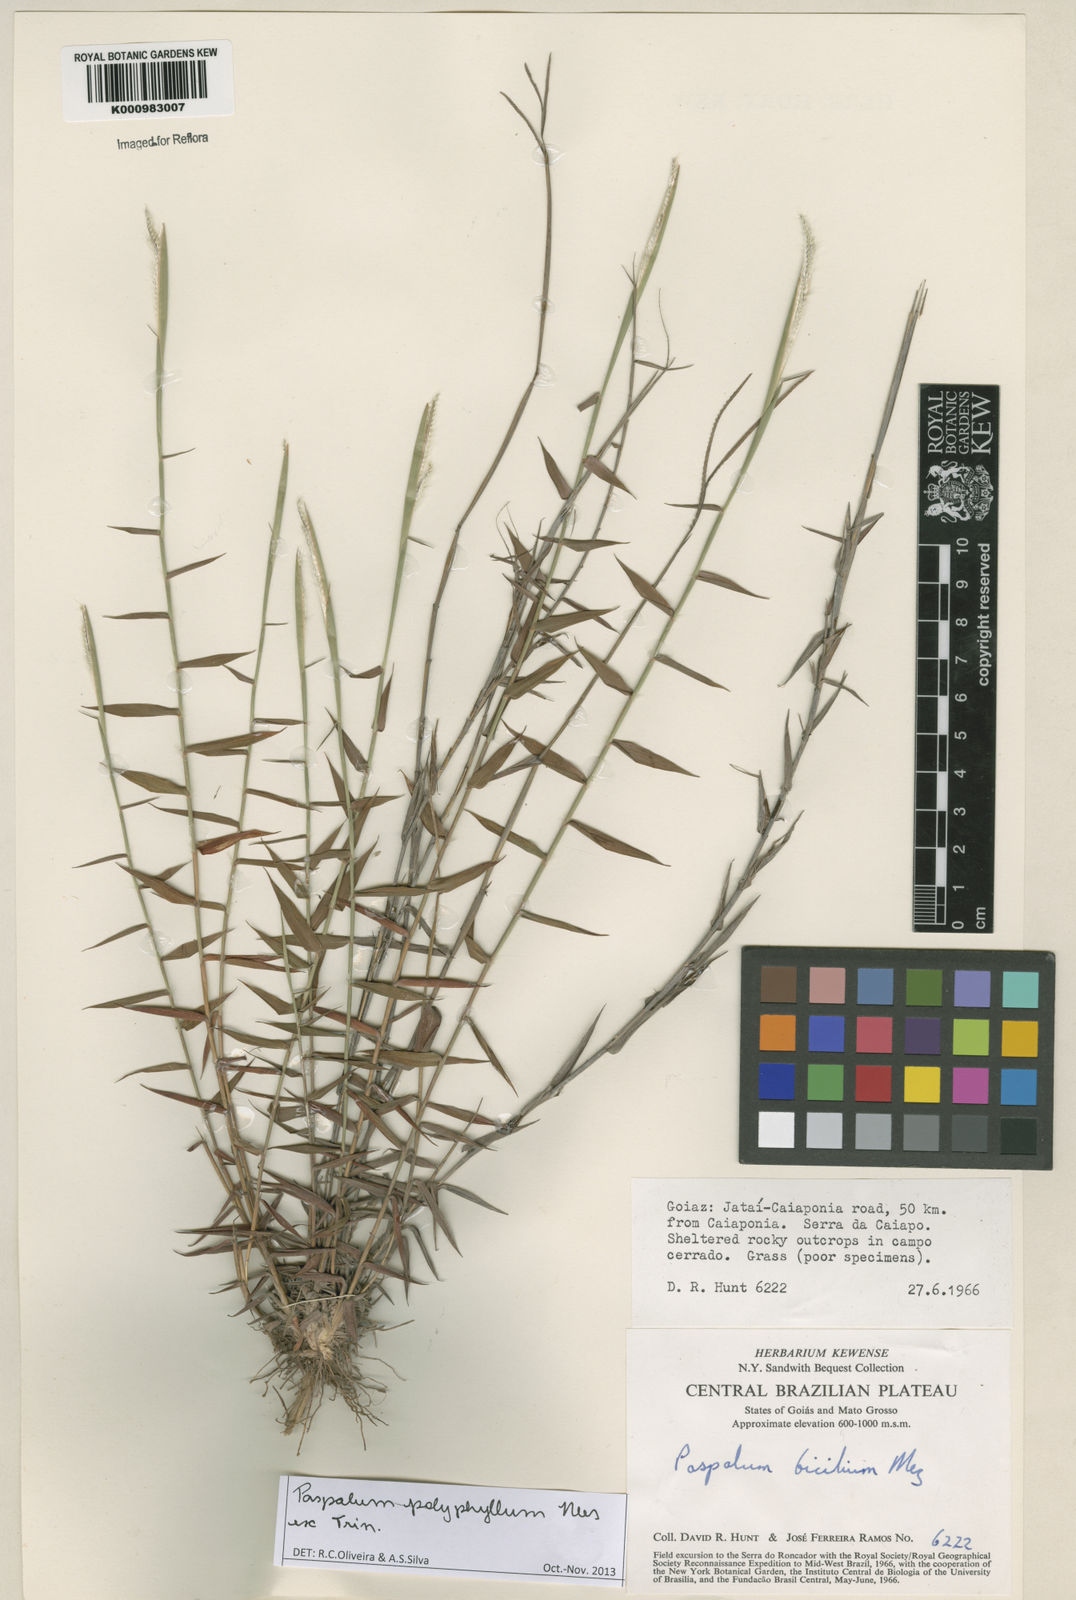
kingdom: Plantae
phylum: Tracheophyta
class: Liliopsida
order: Poales
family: Poaceae
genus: Paspalum
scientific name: Paspalum
